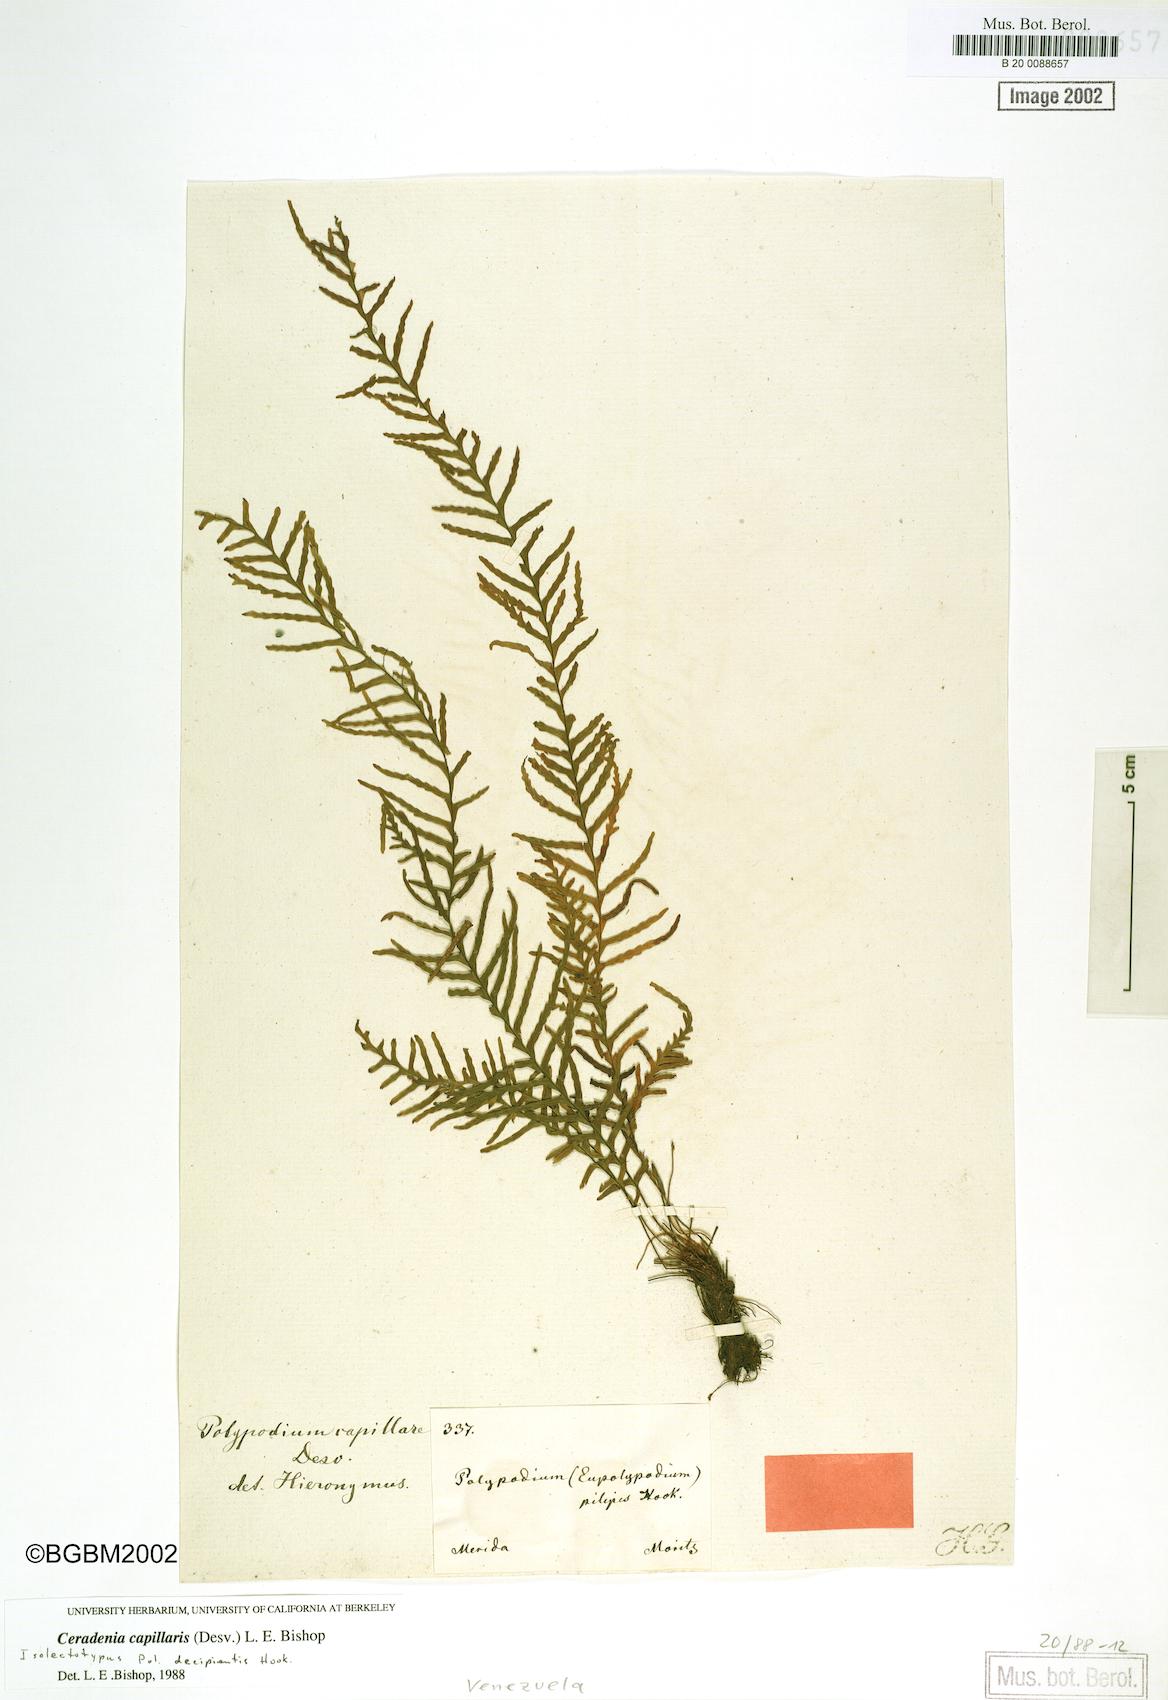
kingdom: Plantae
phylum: Tracheophyta
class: Polypodiopsida
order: Polypodiales
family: Polypodiaceae
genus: Ceradenia
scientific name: Ceradenia pilipes
